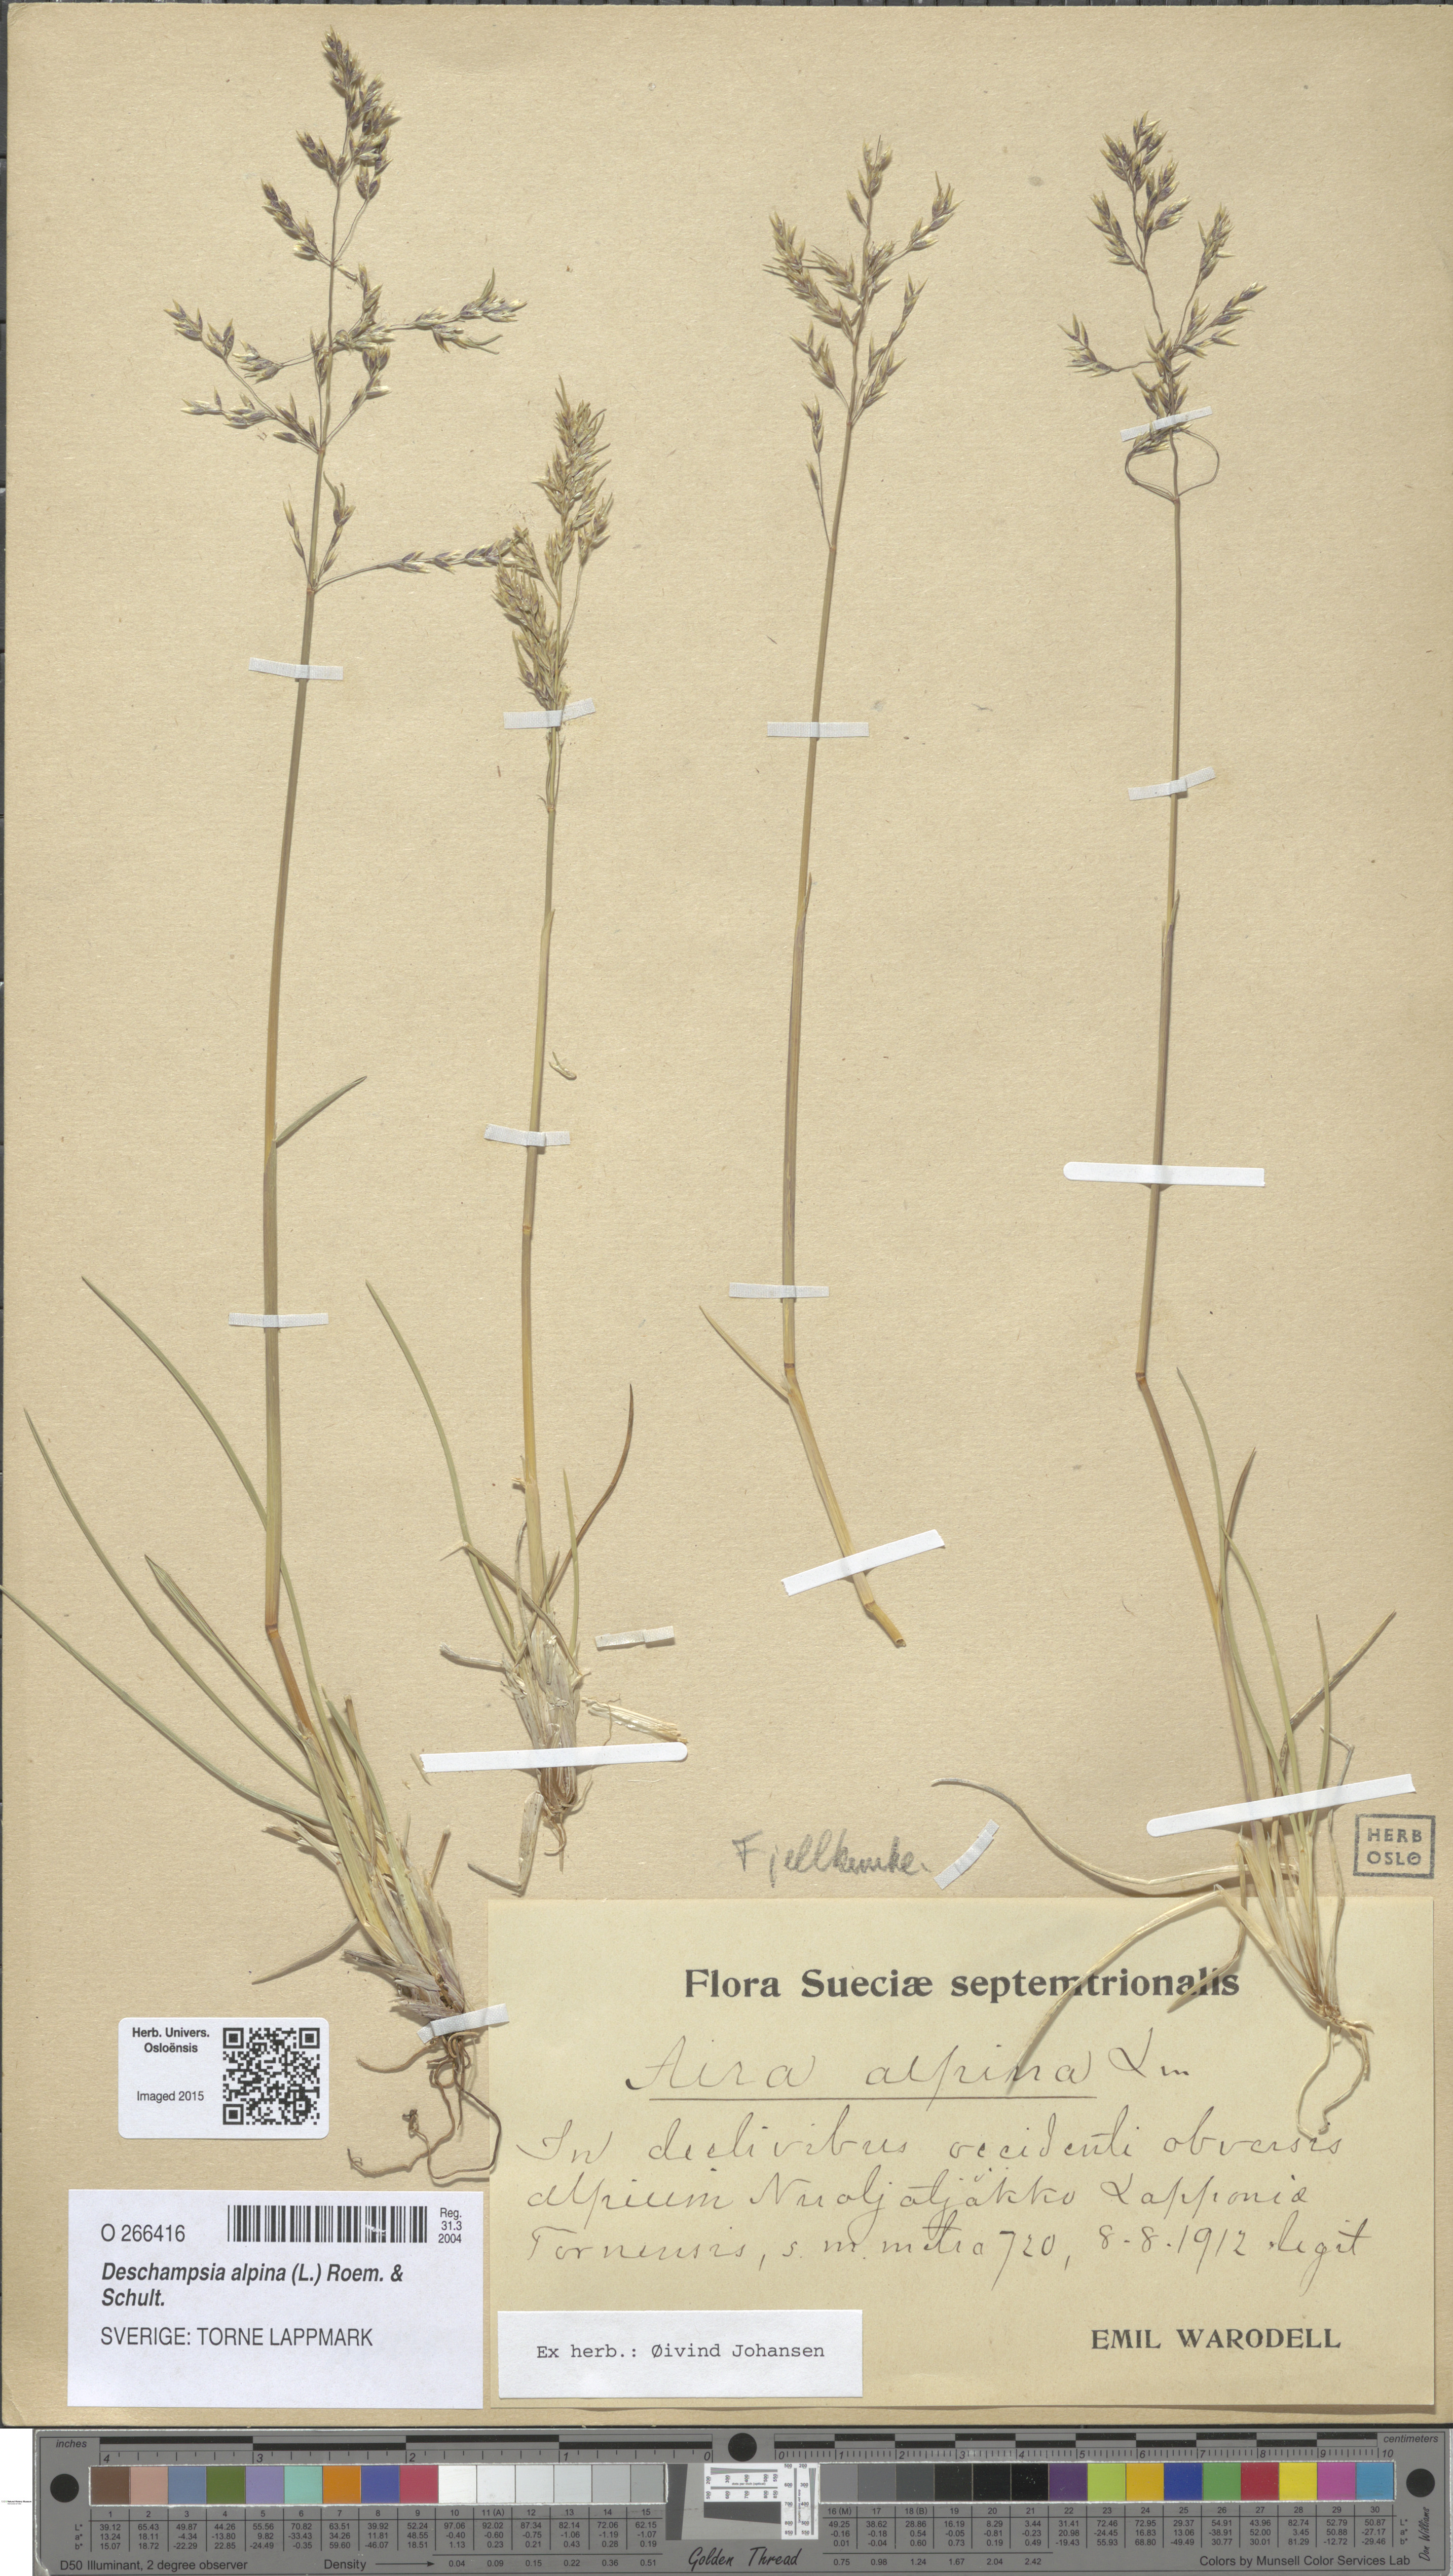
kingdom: Plantae
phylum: Tracheophyta
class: Liliopsida
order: Poales
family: Poaceae
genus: Deschampsia
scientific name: Deschampsia cespitosa
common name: Tufted hair-grass
